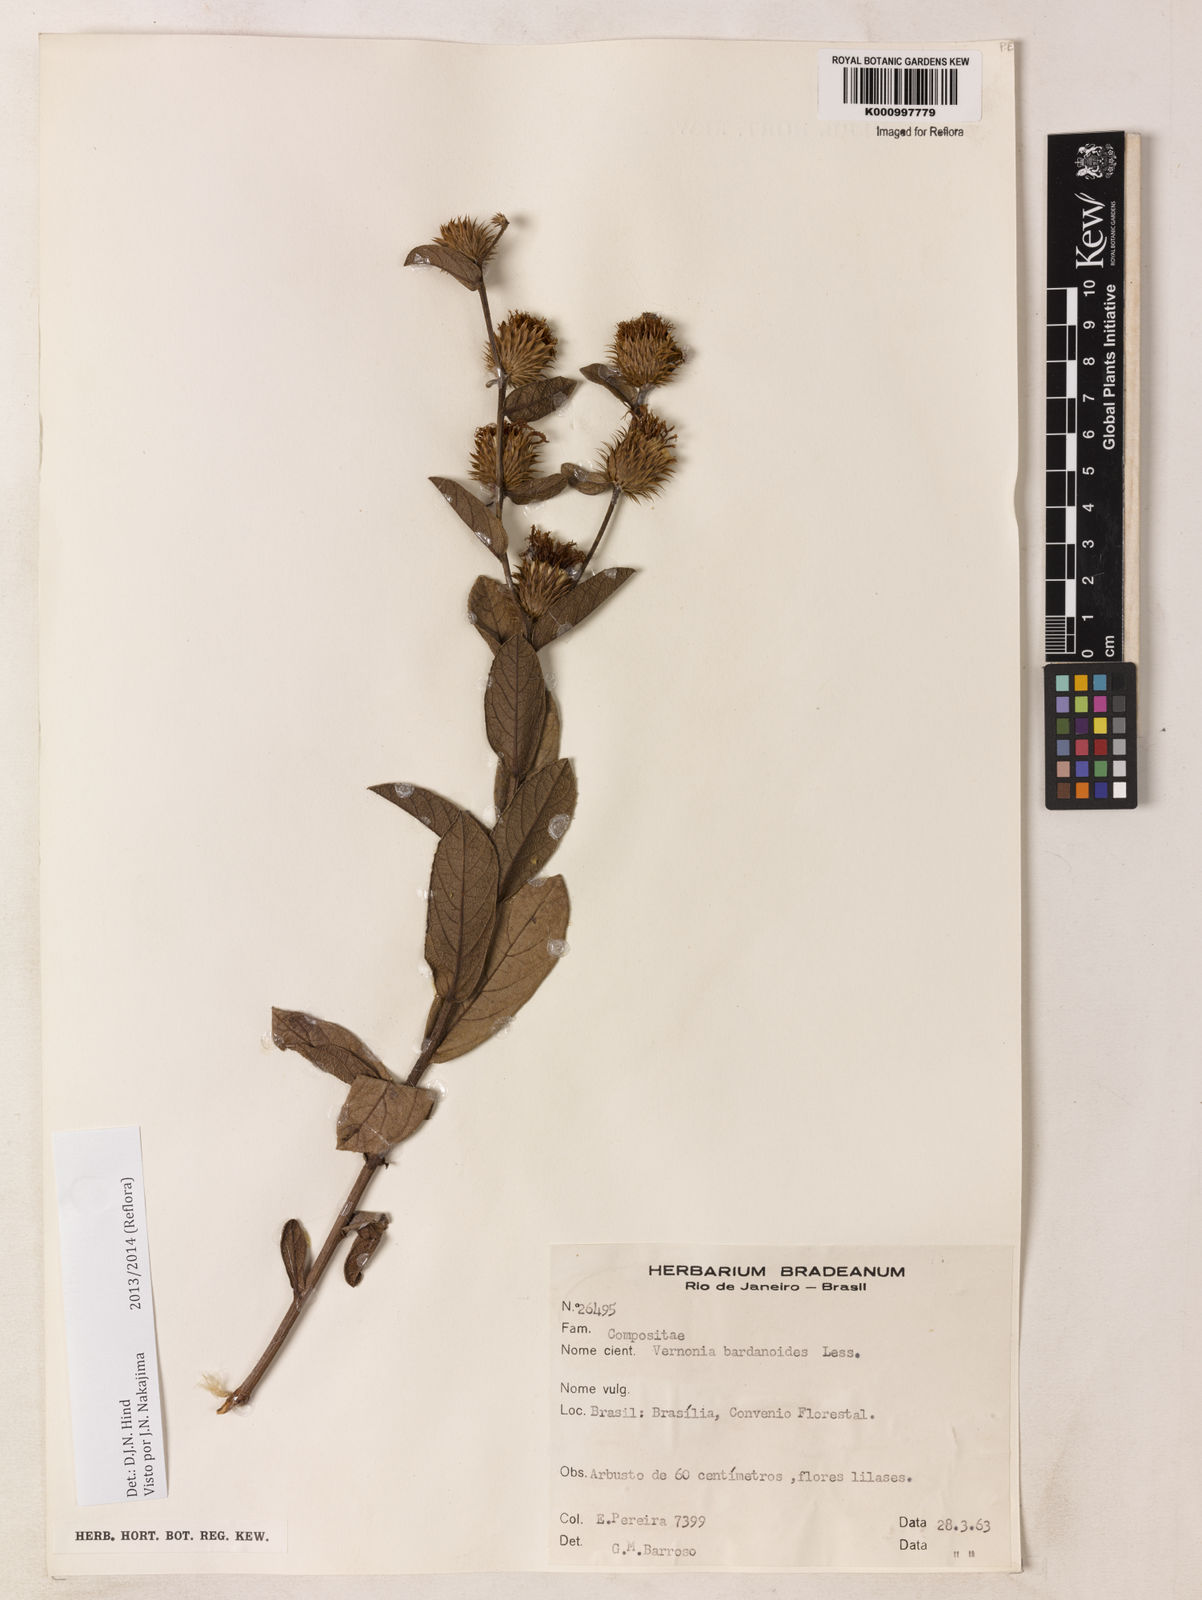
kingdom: Plantae
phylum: Tracheophyta
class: Magnoliopsida
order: Asterales
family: Asteraceae
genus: Lessingianthus
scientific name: Lessingianthus bardanioides
